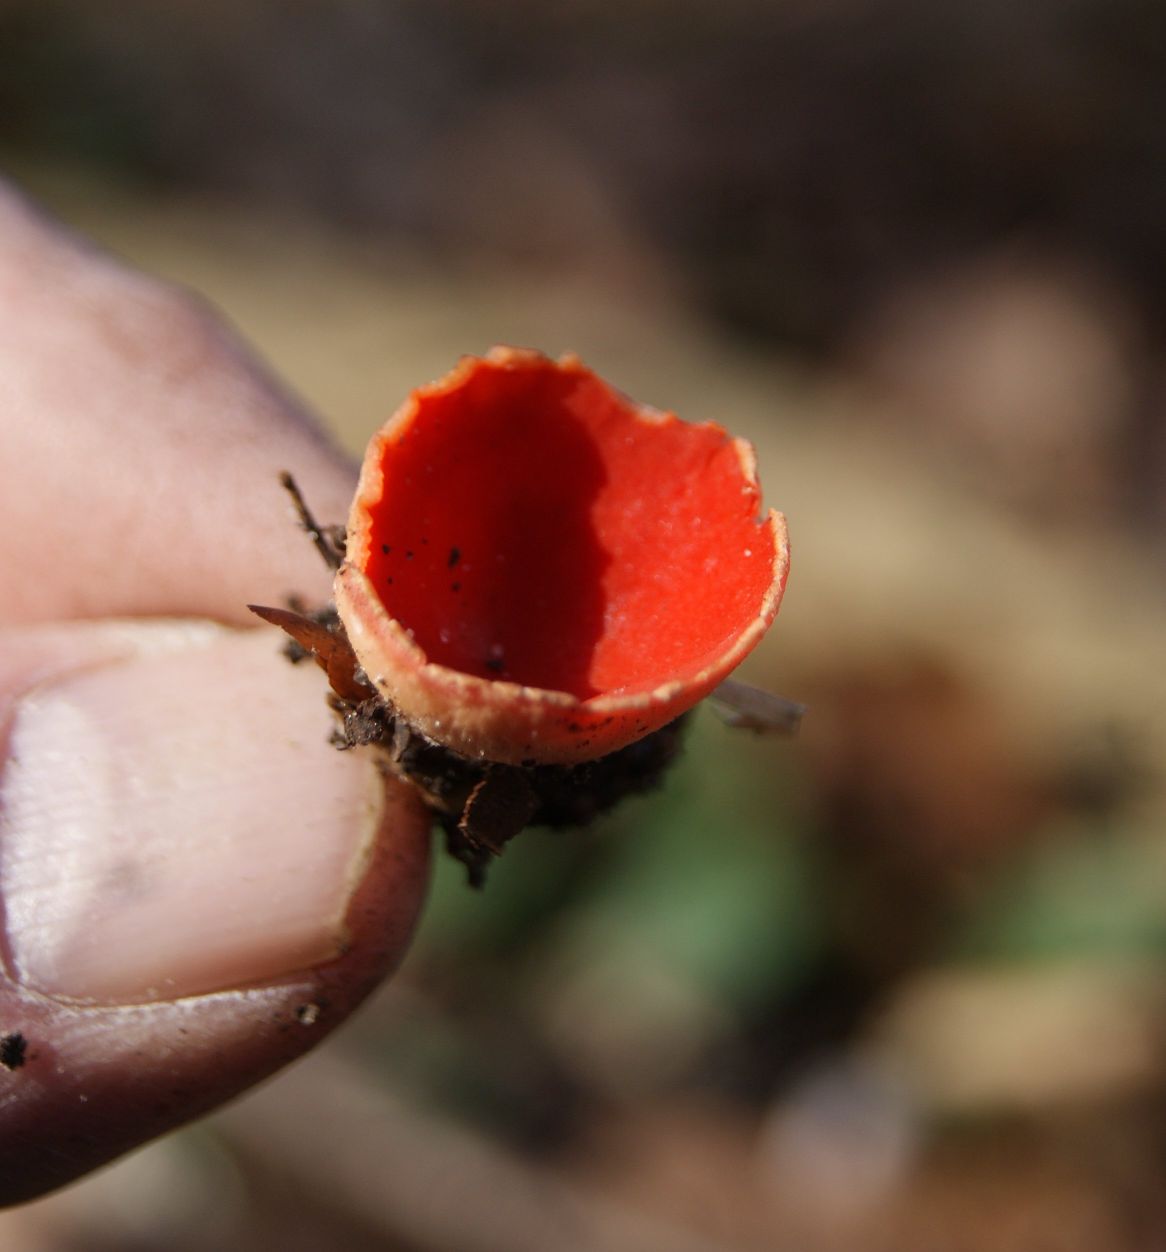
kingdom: Fungi
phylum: Ascomycota
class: Pezizomycetes
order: Pezizales
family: Sarcoscyphaceae
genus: Sarcoscypha
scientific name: Sarcoscypha coccinea
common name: skarlagen-pragtbæger
